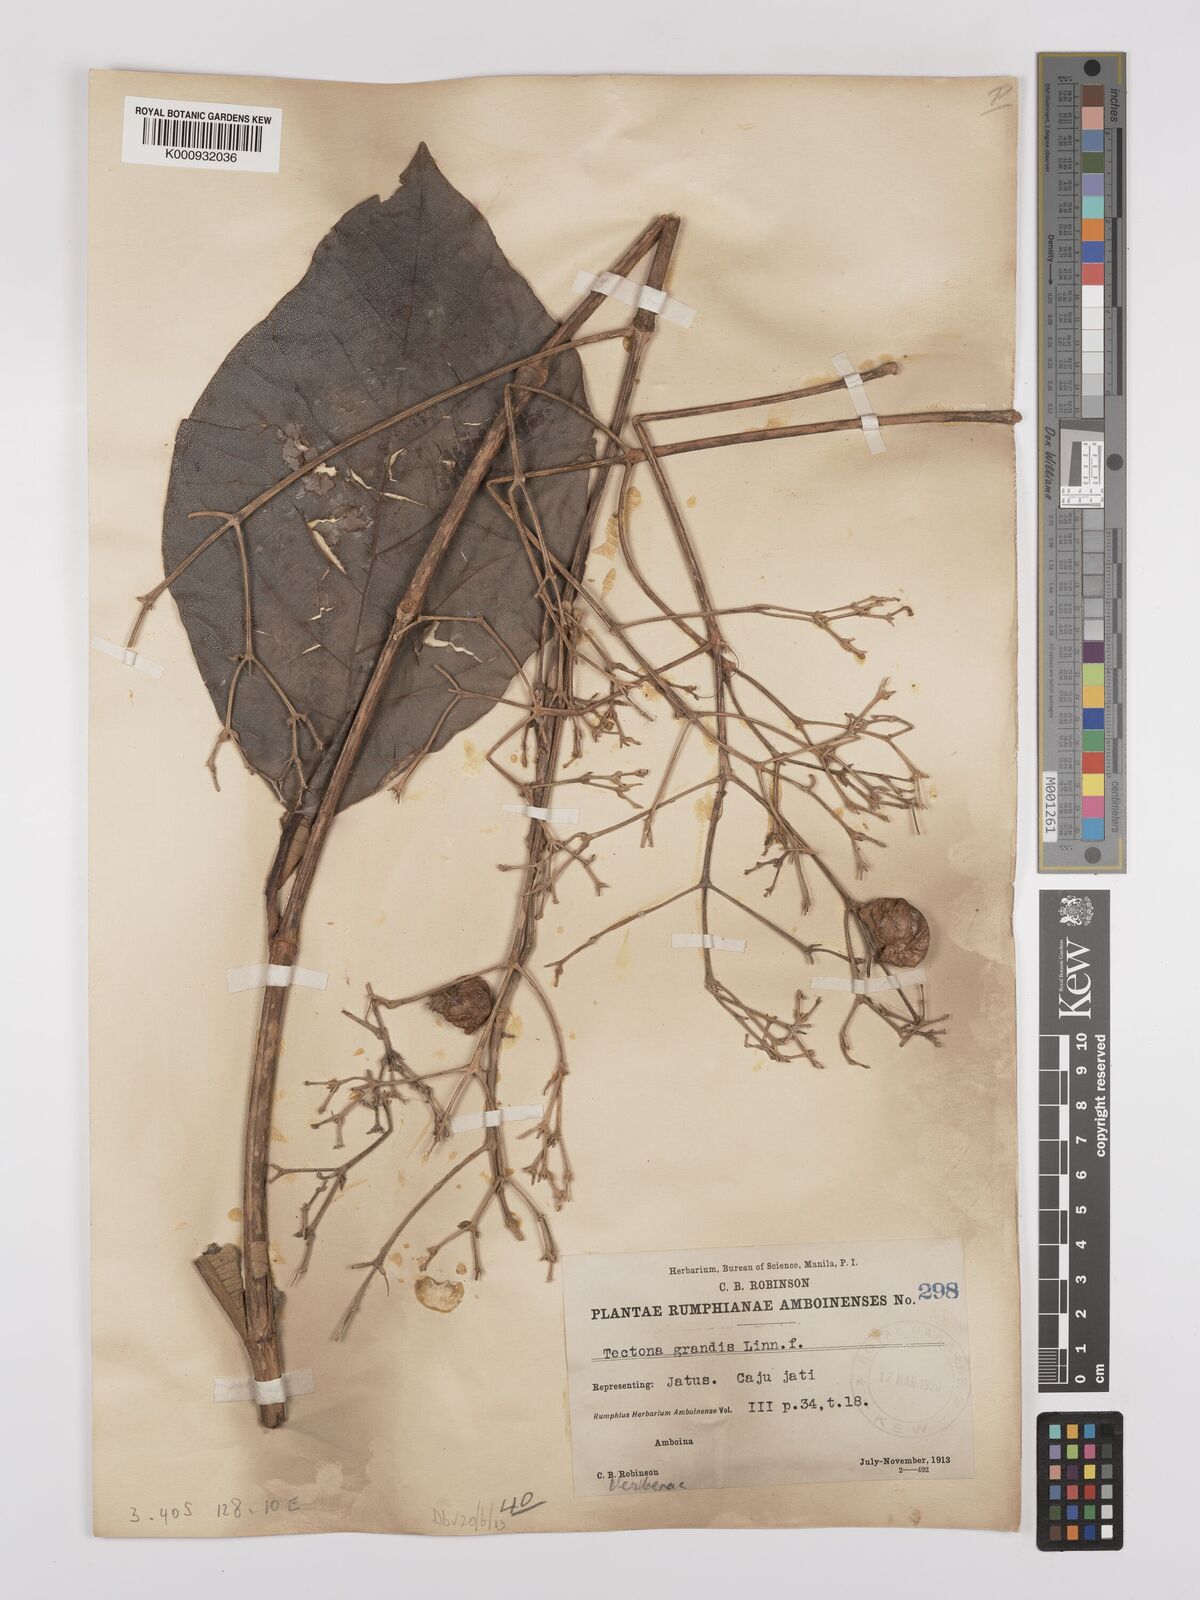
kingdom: Plantae
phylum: Tracheophyta
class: Magnoliopsida
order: Lamiales
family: Lamiaceae
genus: Tectona
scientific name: Tectona grandis
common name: Teak
